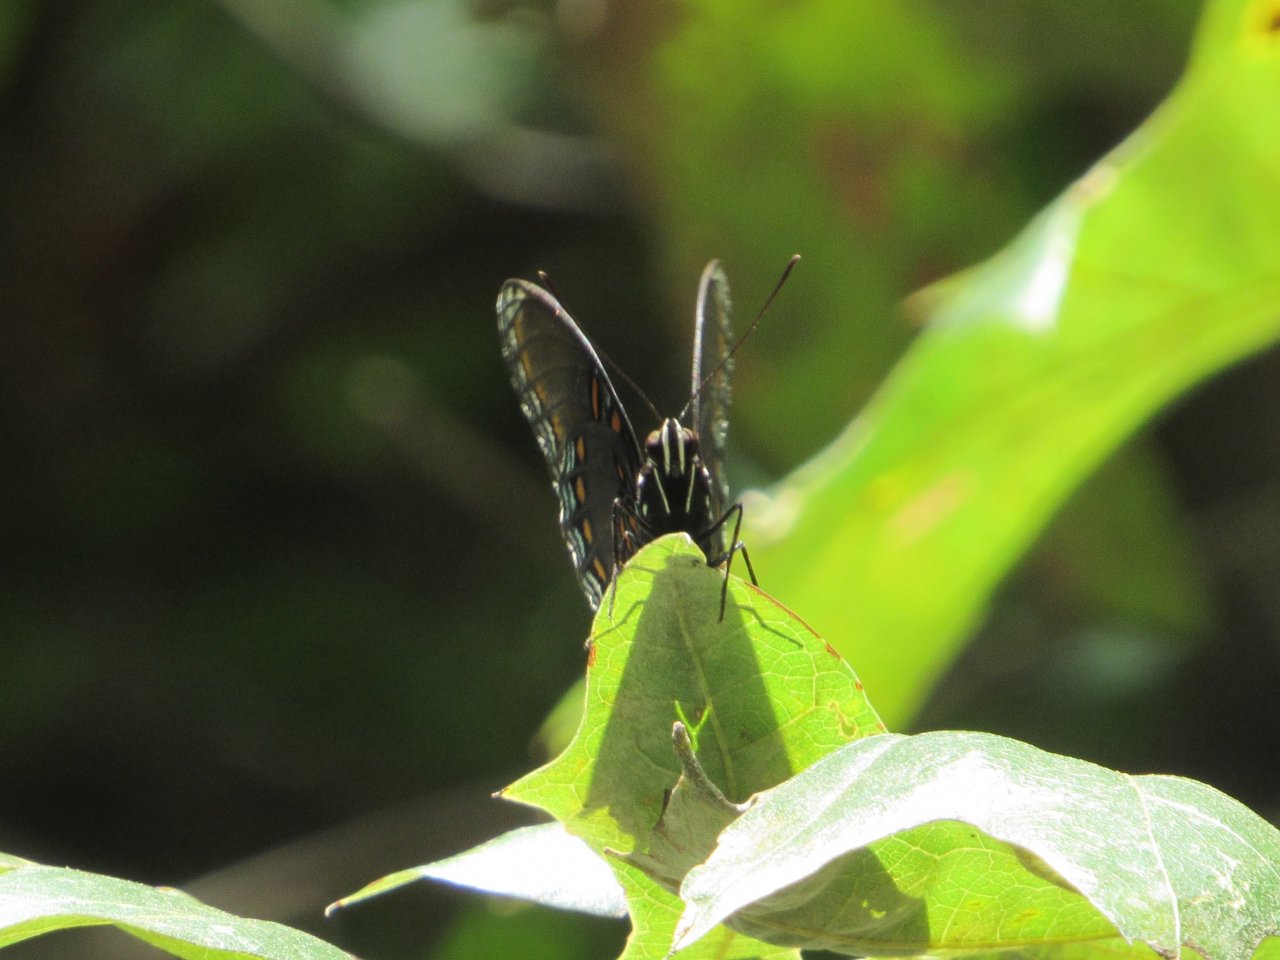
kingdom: Animalia
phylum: Arthropoda
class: Insecta
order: Lepidoptera
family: Nymphalidae
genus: Limenitis
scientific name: Limenitis astyanax
